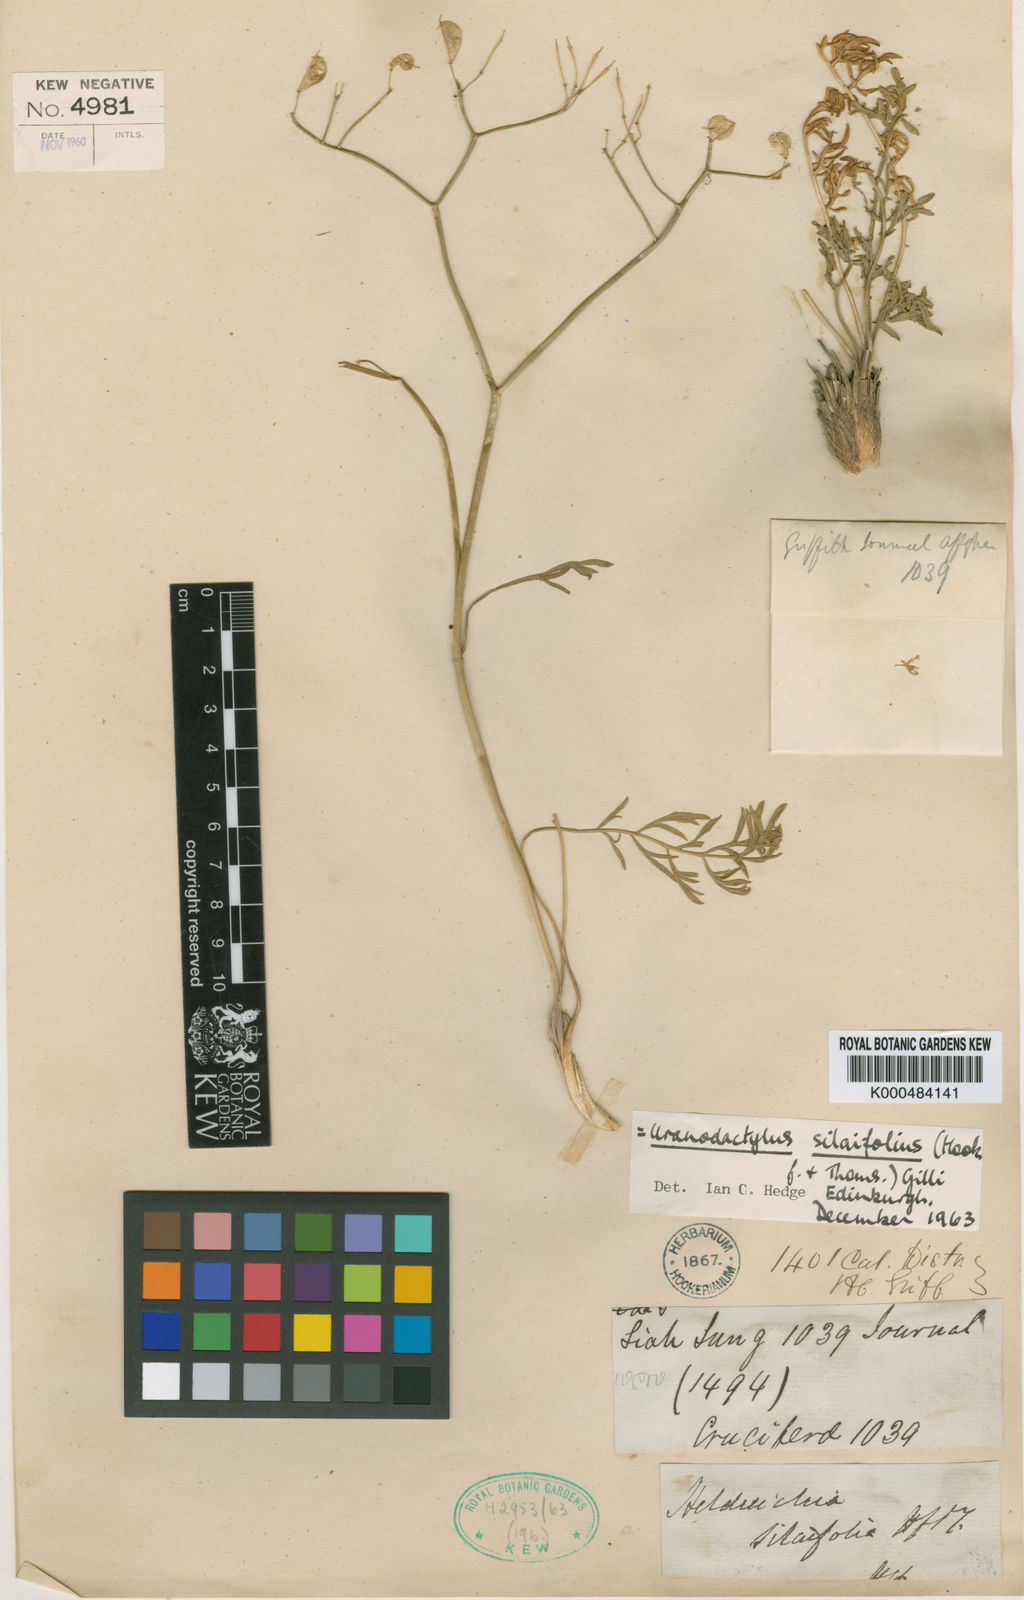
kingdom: Plantae
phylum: Tracheophyta
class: Magnoliopsida
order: Brassicales
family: Brassicaceae
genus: Lepidium
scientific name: Lepidium silaifolium
